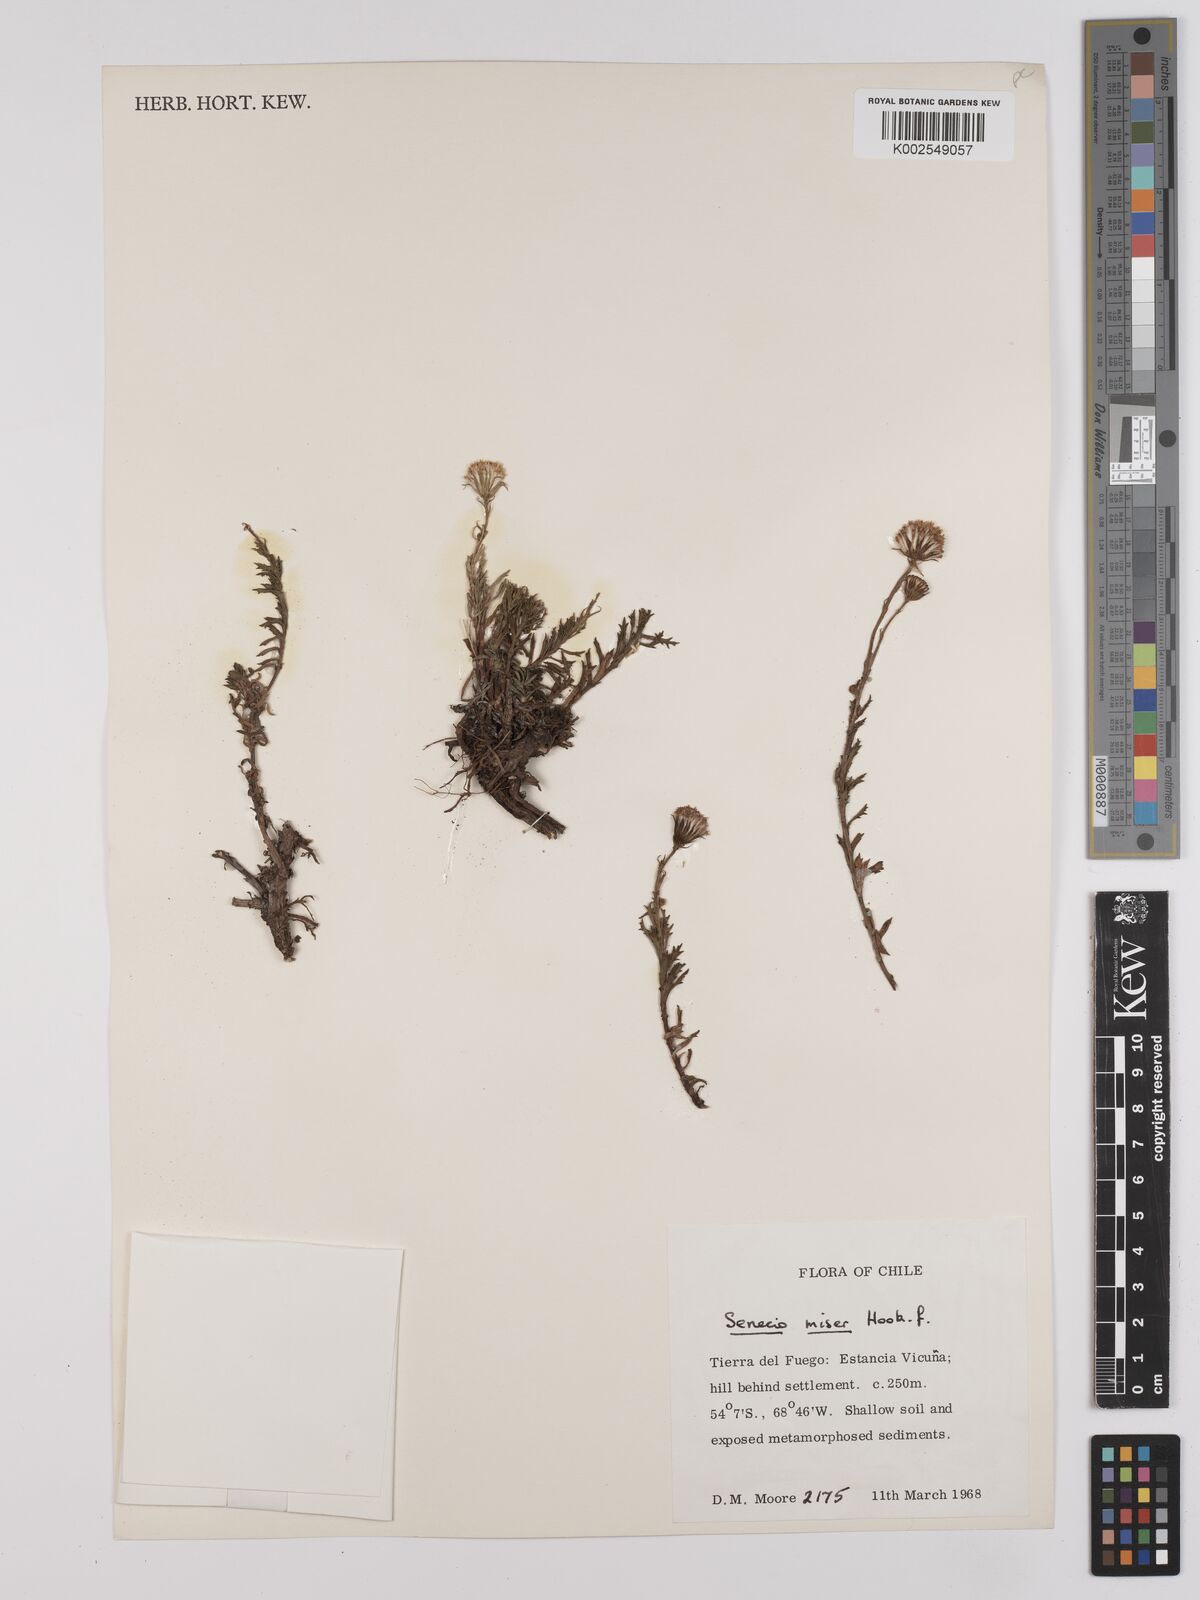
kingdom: Plantae
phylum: Tracheophyta
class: Magnoliopsida
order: Asterales
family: Asteraceae
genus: Senecio
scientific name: Senecio miser
